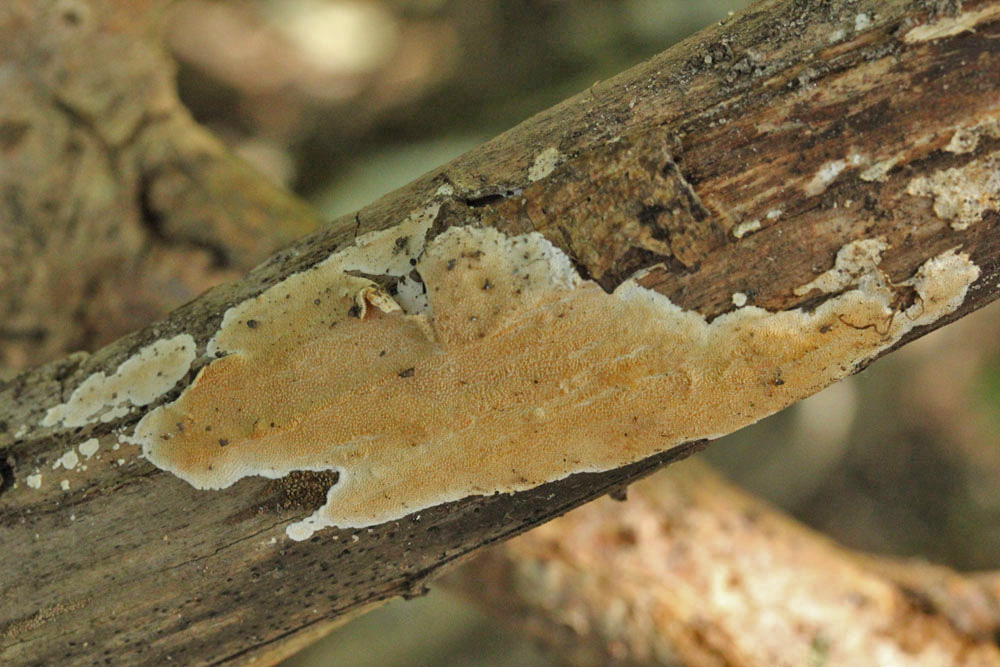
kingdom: Fungi
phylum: Basidiomycota
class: Agaricomycetes
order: Polyporales
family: Steccherinaceae
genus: Steccherinum
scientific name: Steccherinum ochraceum
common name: almindelig skønpig
